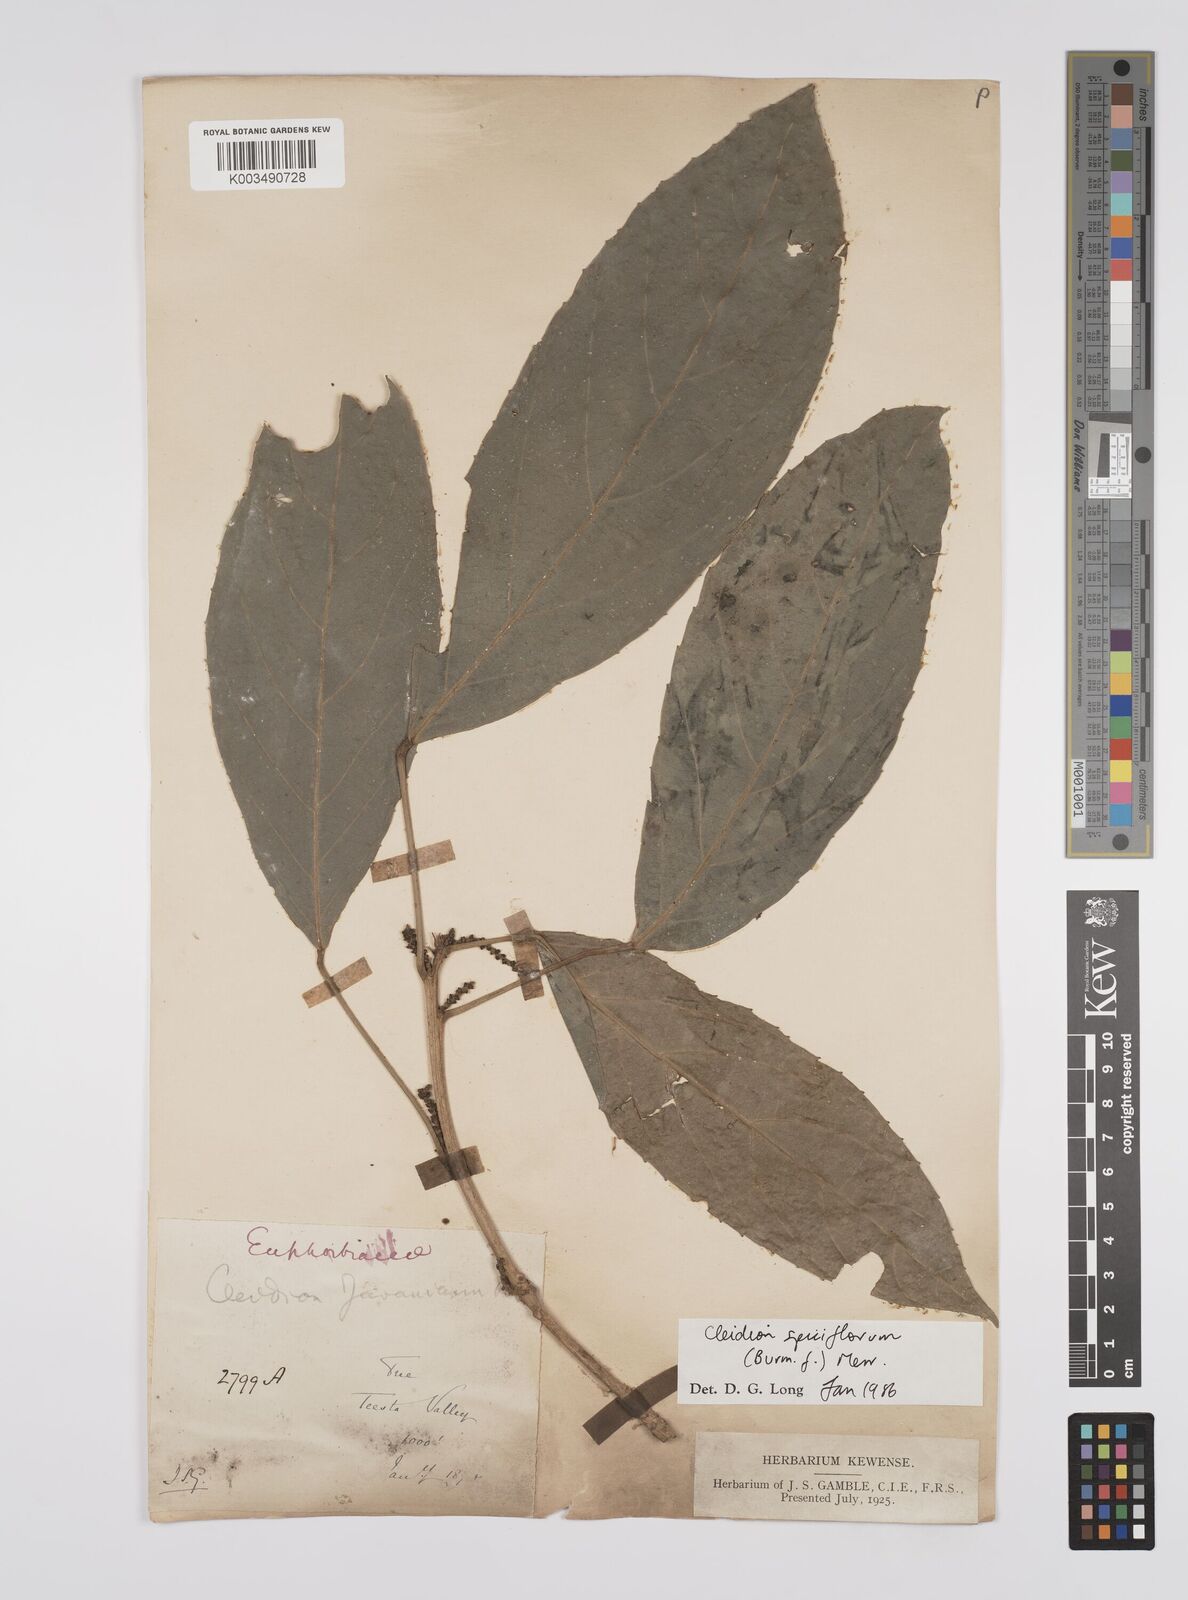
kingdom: Plantae
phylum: Tracheophyta
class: Magnoliopsida
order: Malpighiales
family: Euphorbiaceae
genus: Acalypha
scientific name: Acalypha spiciflora
